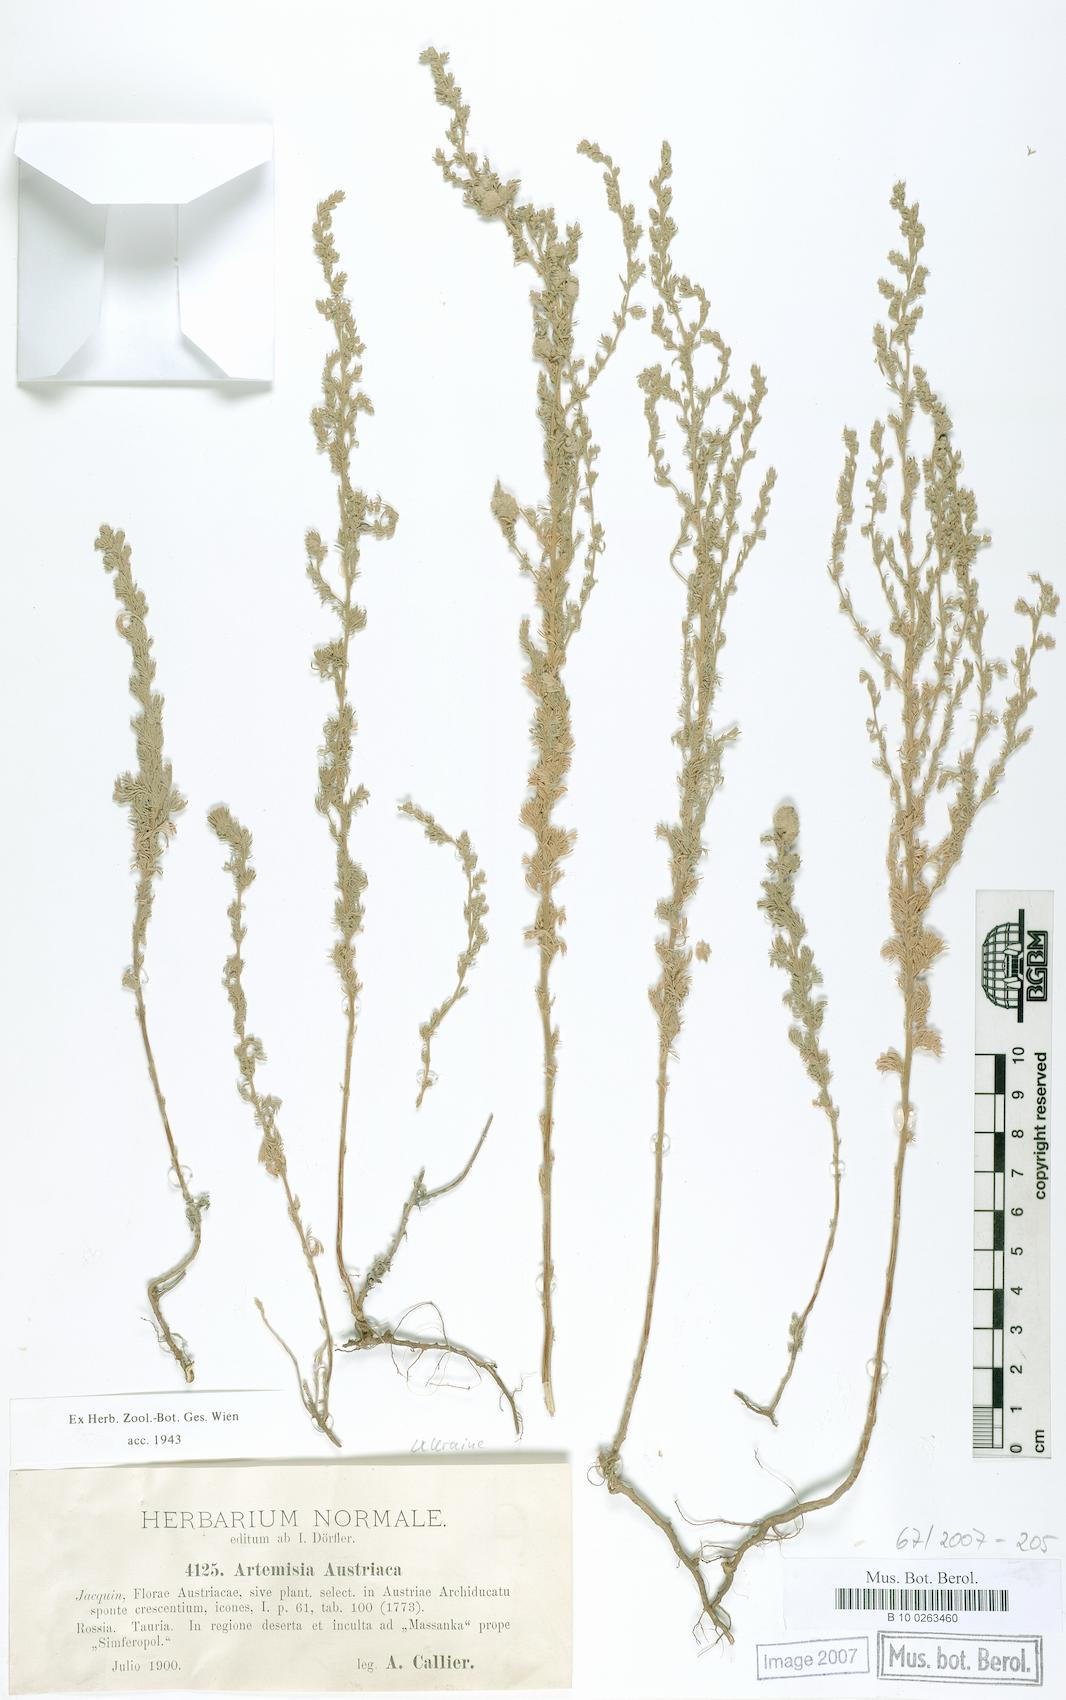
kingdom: Plantae
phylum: Tracheophyta
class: Magnoliopsida
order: Asterales
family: Asteraceae
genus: Artemisia
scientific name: Artemisia austriaca
